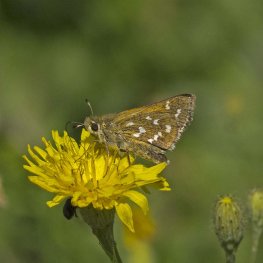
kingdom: Animalia
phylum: Arthropoda
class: Insecta
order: Lepidoptera
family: Hesperiidae
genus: Hesperia
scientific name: Hesperia comma
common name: Common Branded Skipper
